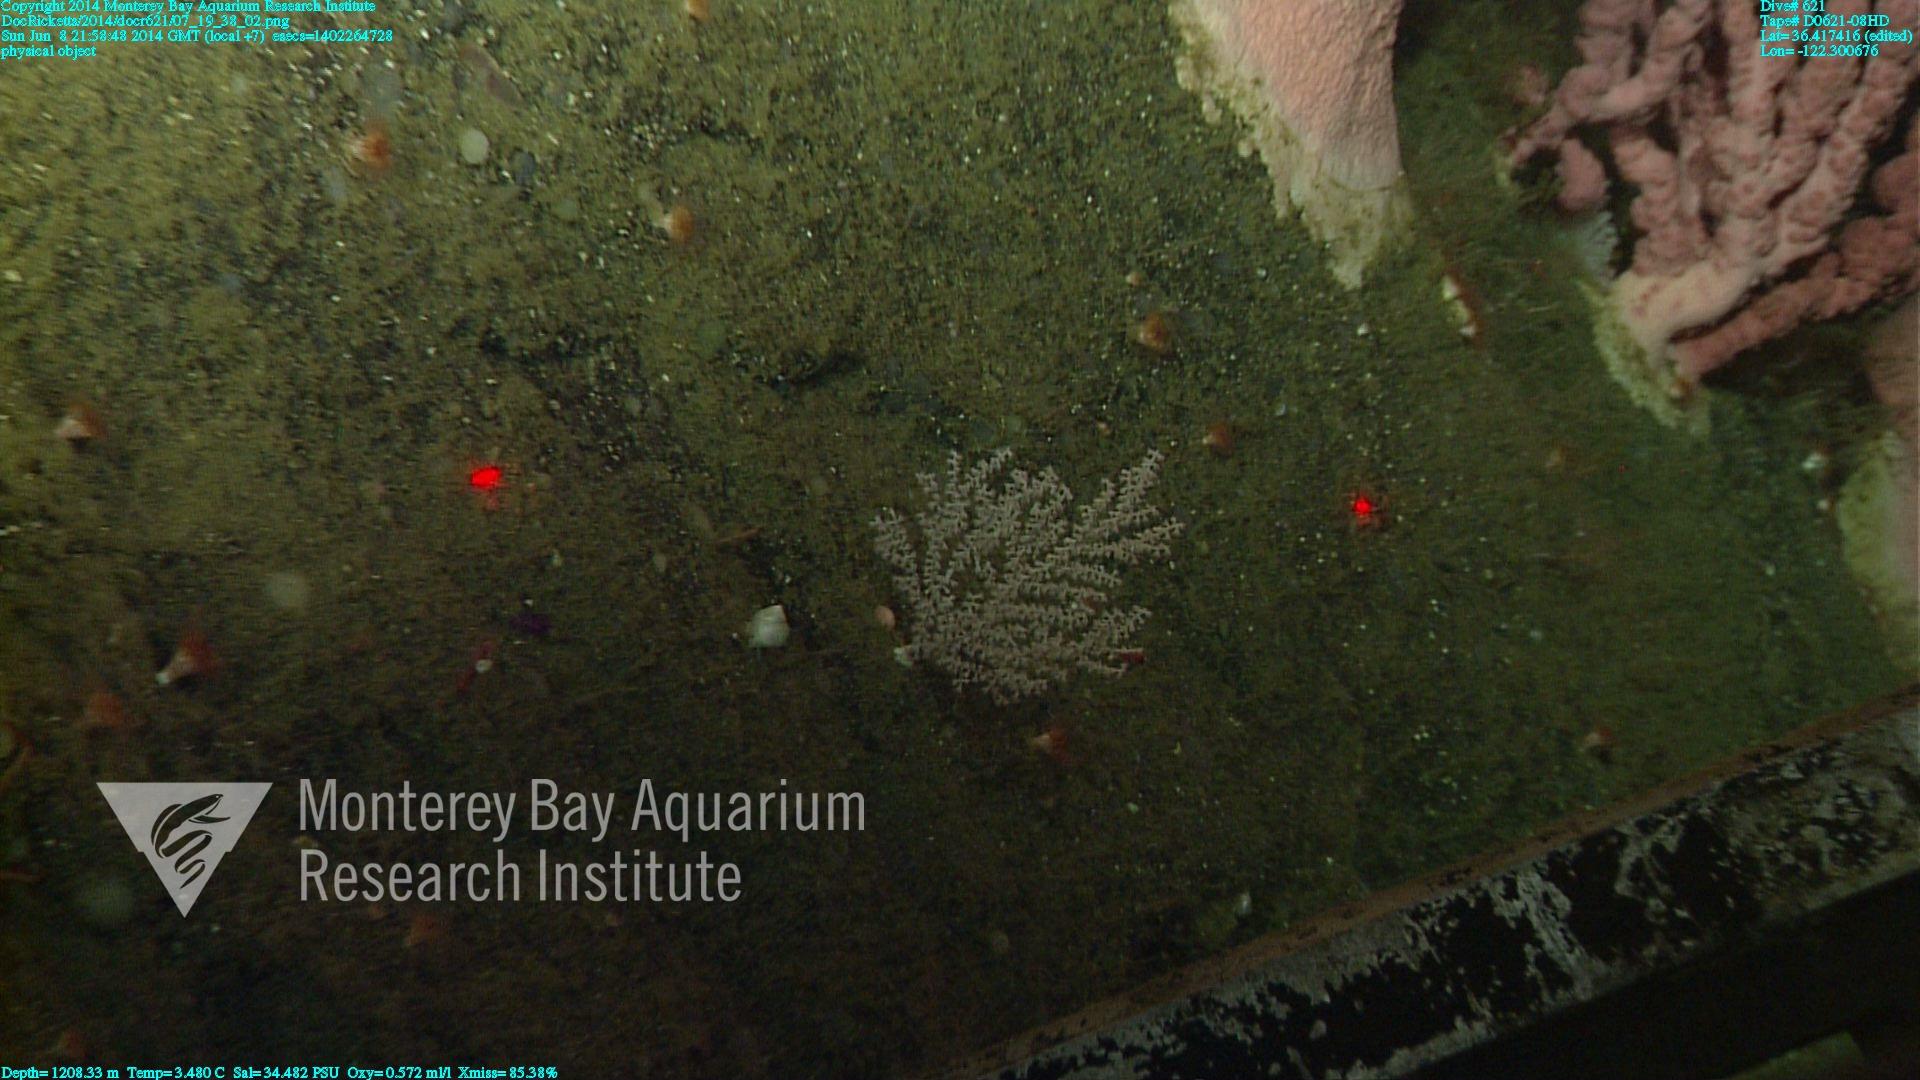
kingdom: Animalia
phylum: Cnidaria
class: Anthozoa
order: Scleralcyonacea
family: Primnoidae
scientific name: Primnoidae
